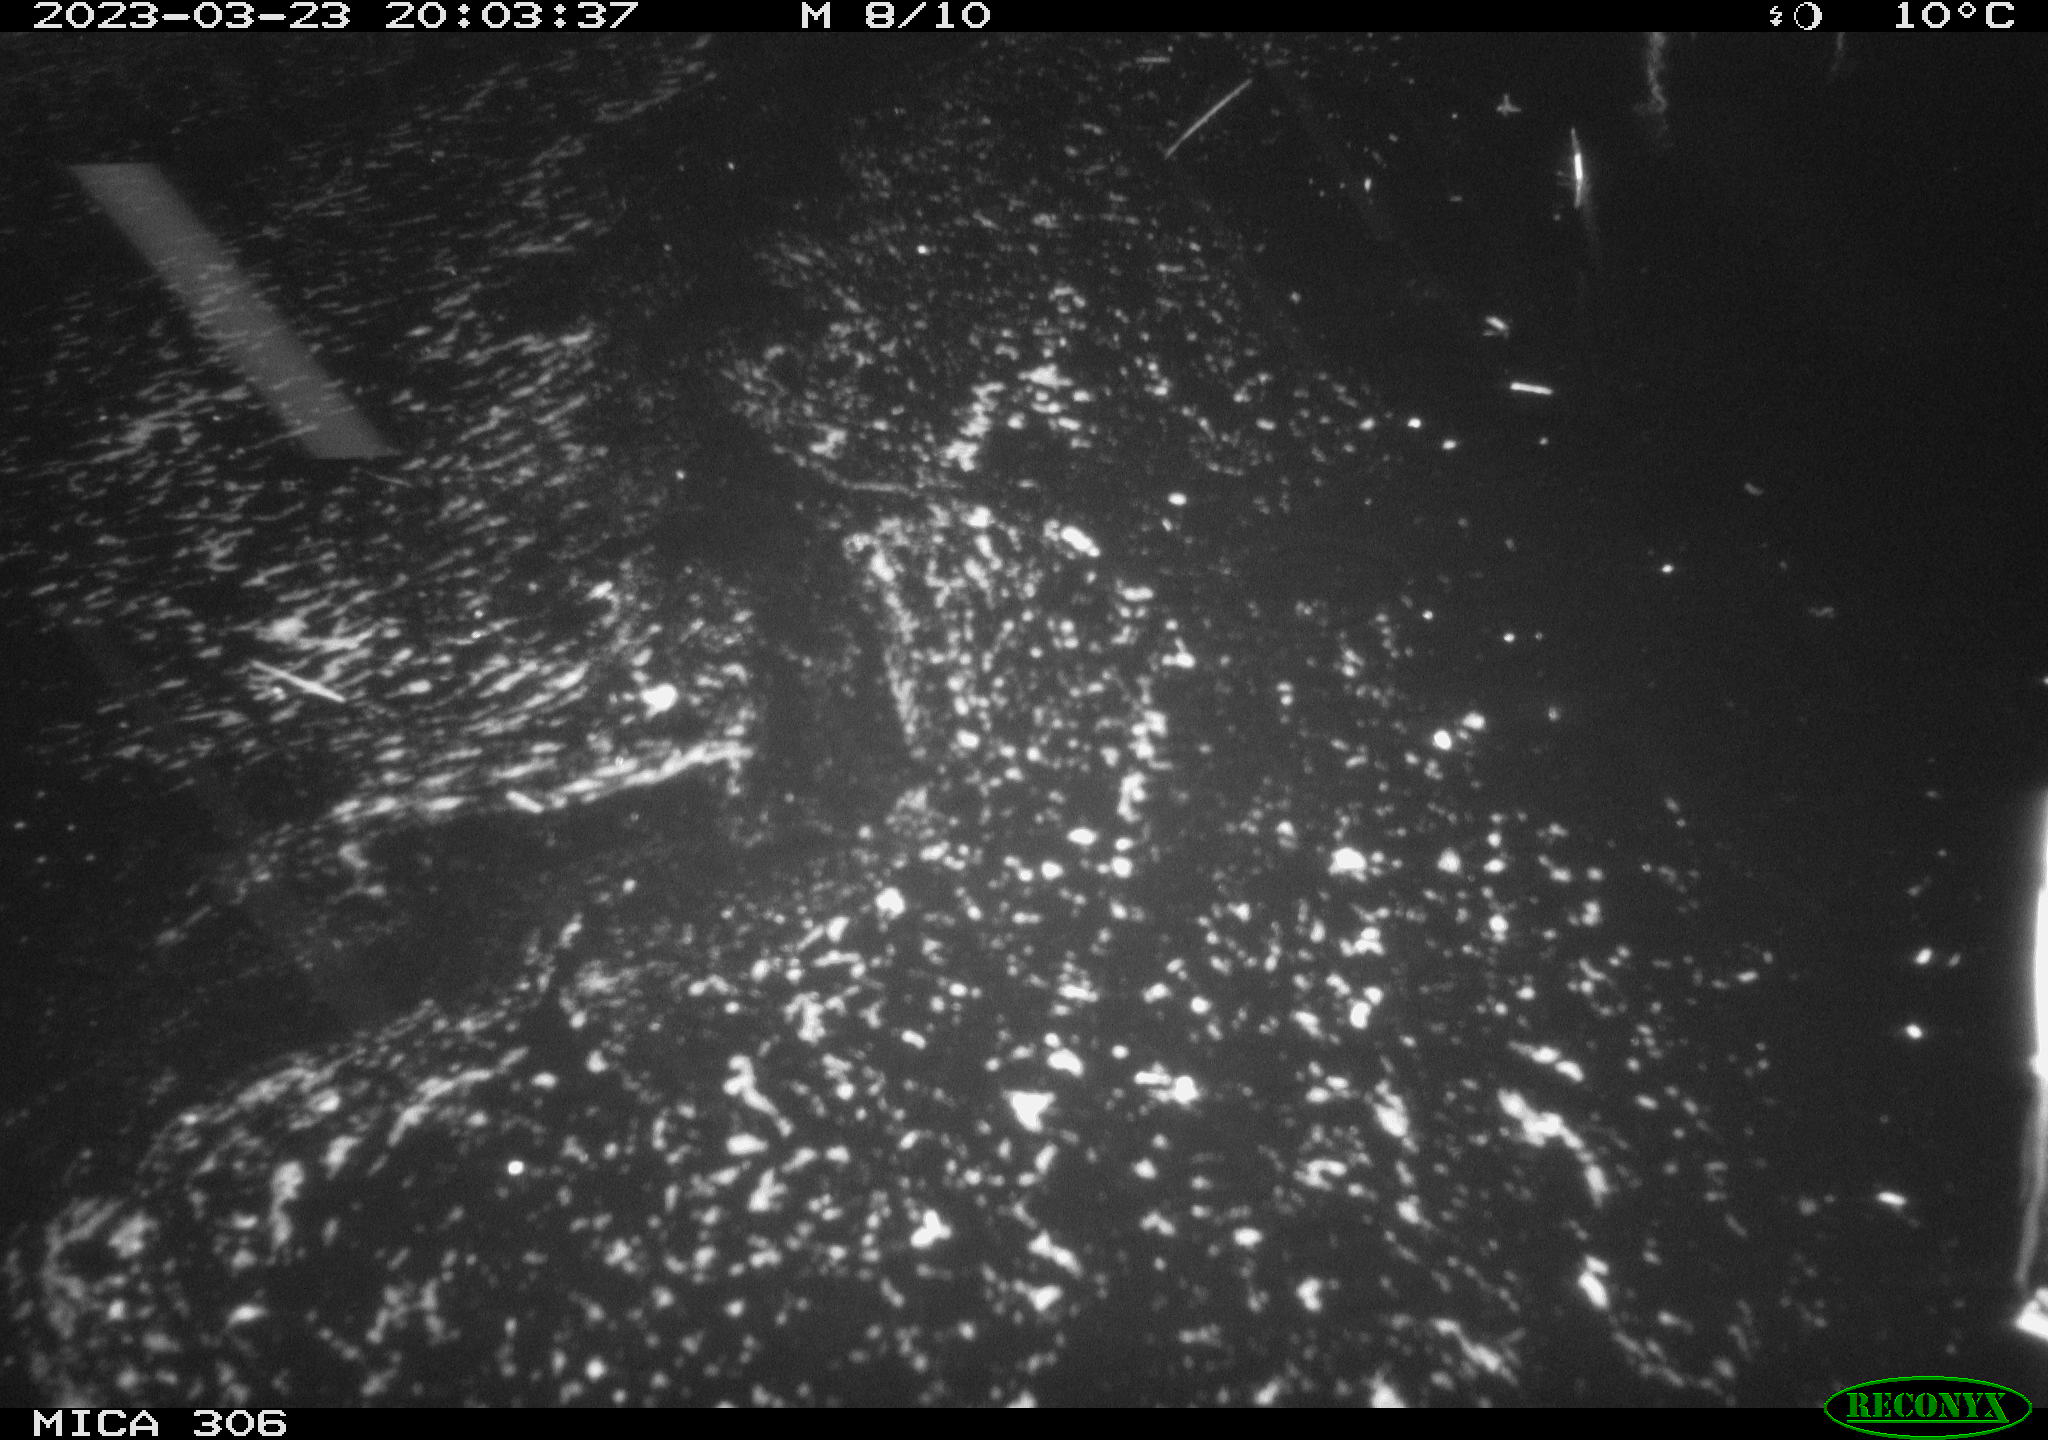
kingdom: Animalia
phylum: Chordata
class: Mammalia
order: Rodentia
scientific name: Rodentia
